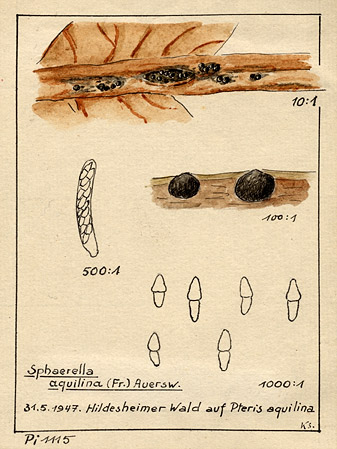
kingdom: Plantae
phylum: Tracheophyta
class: Polypodiopsida
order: Polypodiales
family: Dennstaedtiaceae
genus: Pteridium
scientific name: Pteridium aquilinum
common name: Bracken
